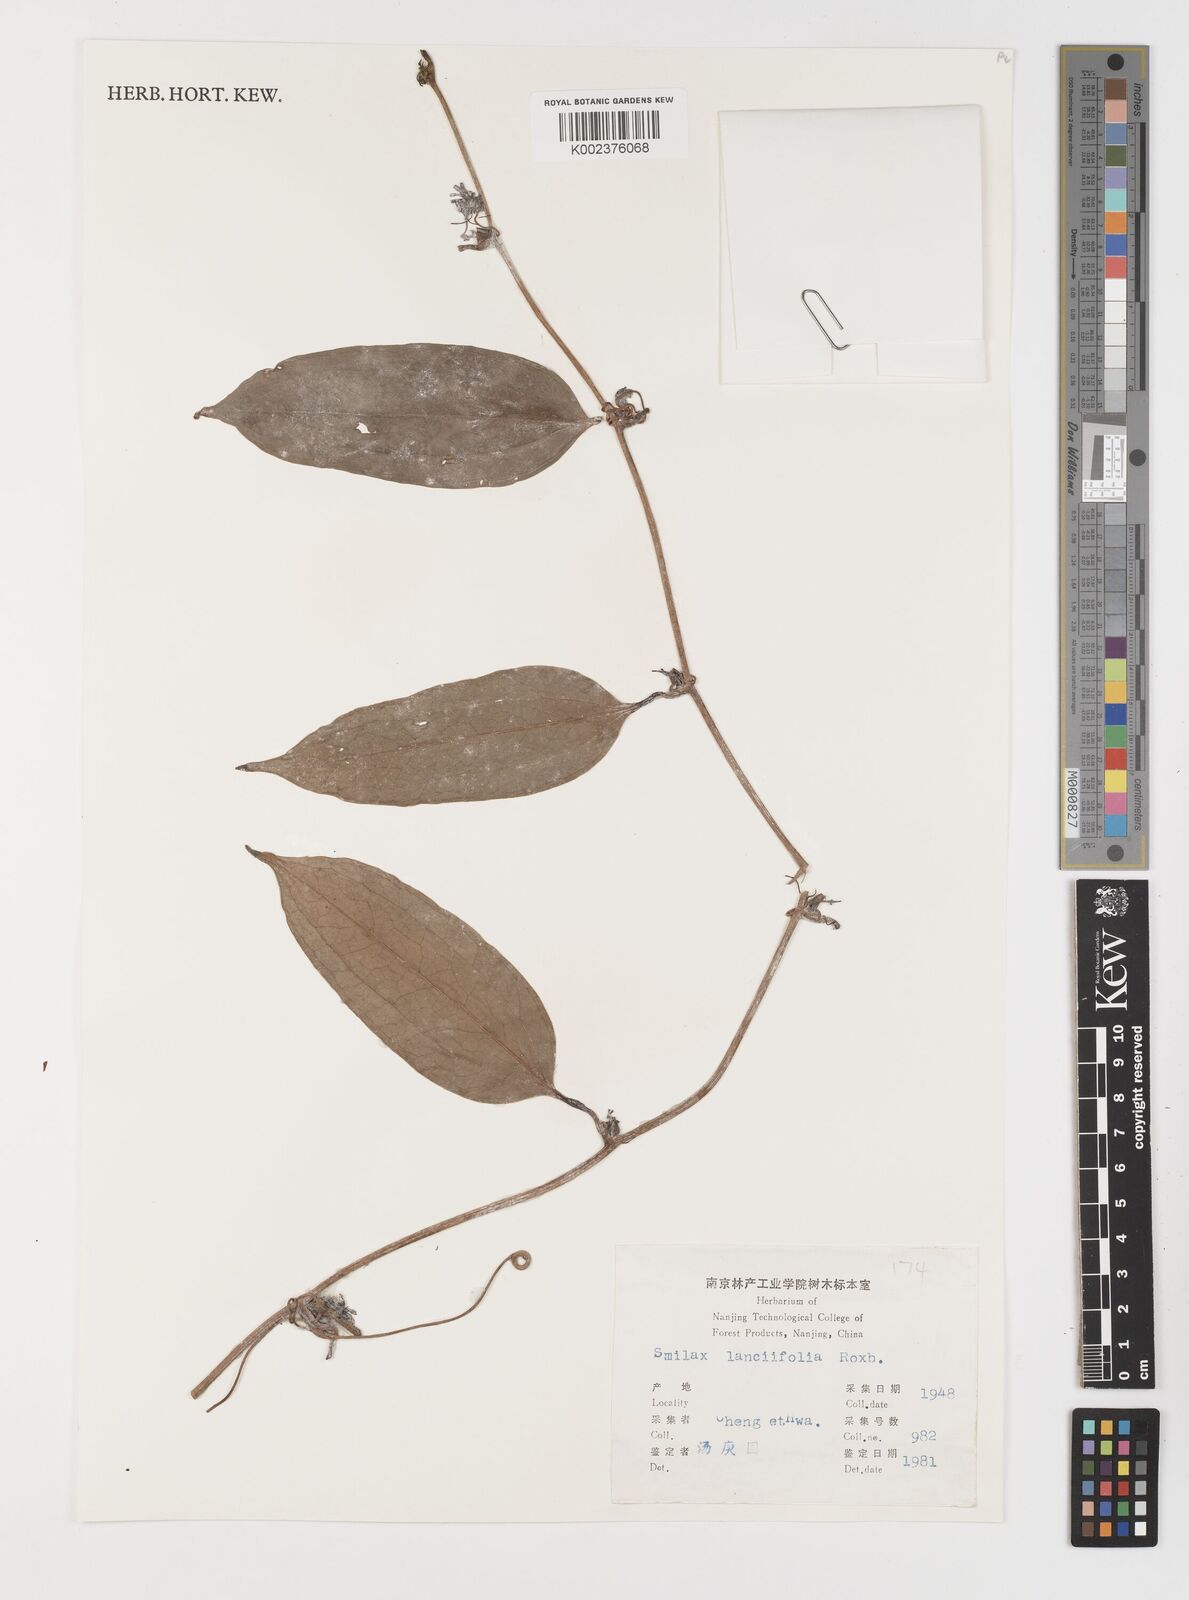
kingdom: Plantae
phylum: Tracheophyta
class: Liliopsida
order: Liliales
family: Smilacaceae
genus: Smilax
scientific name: Smilax lanceifolia
